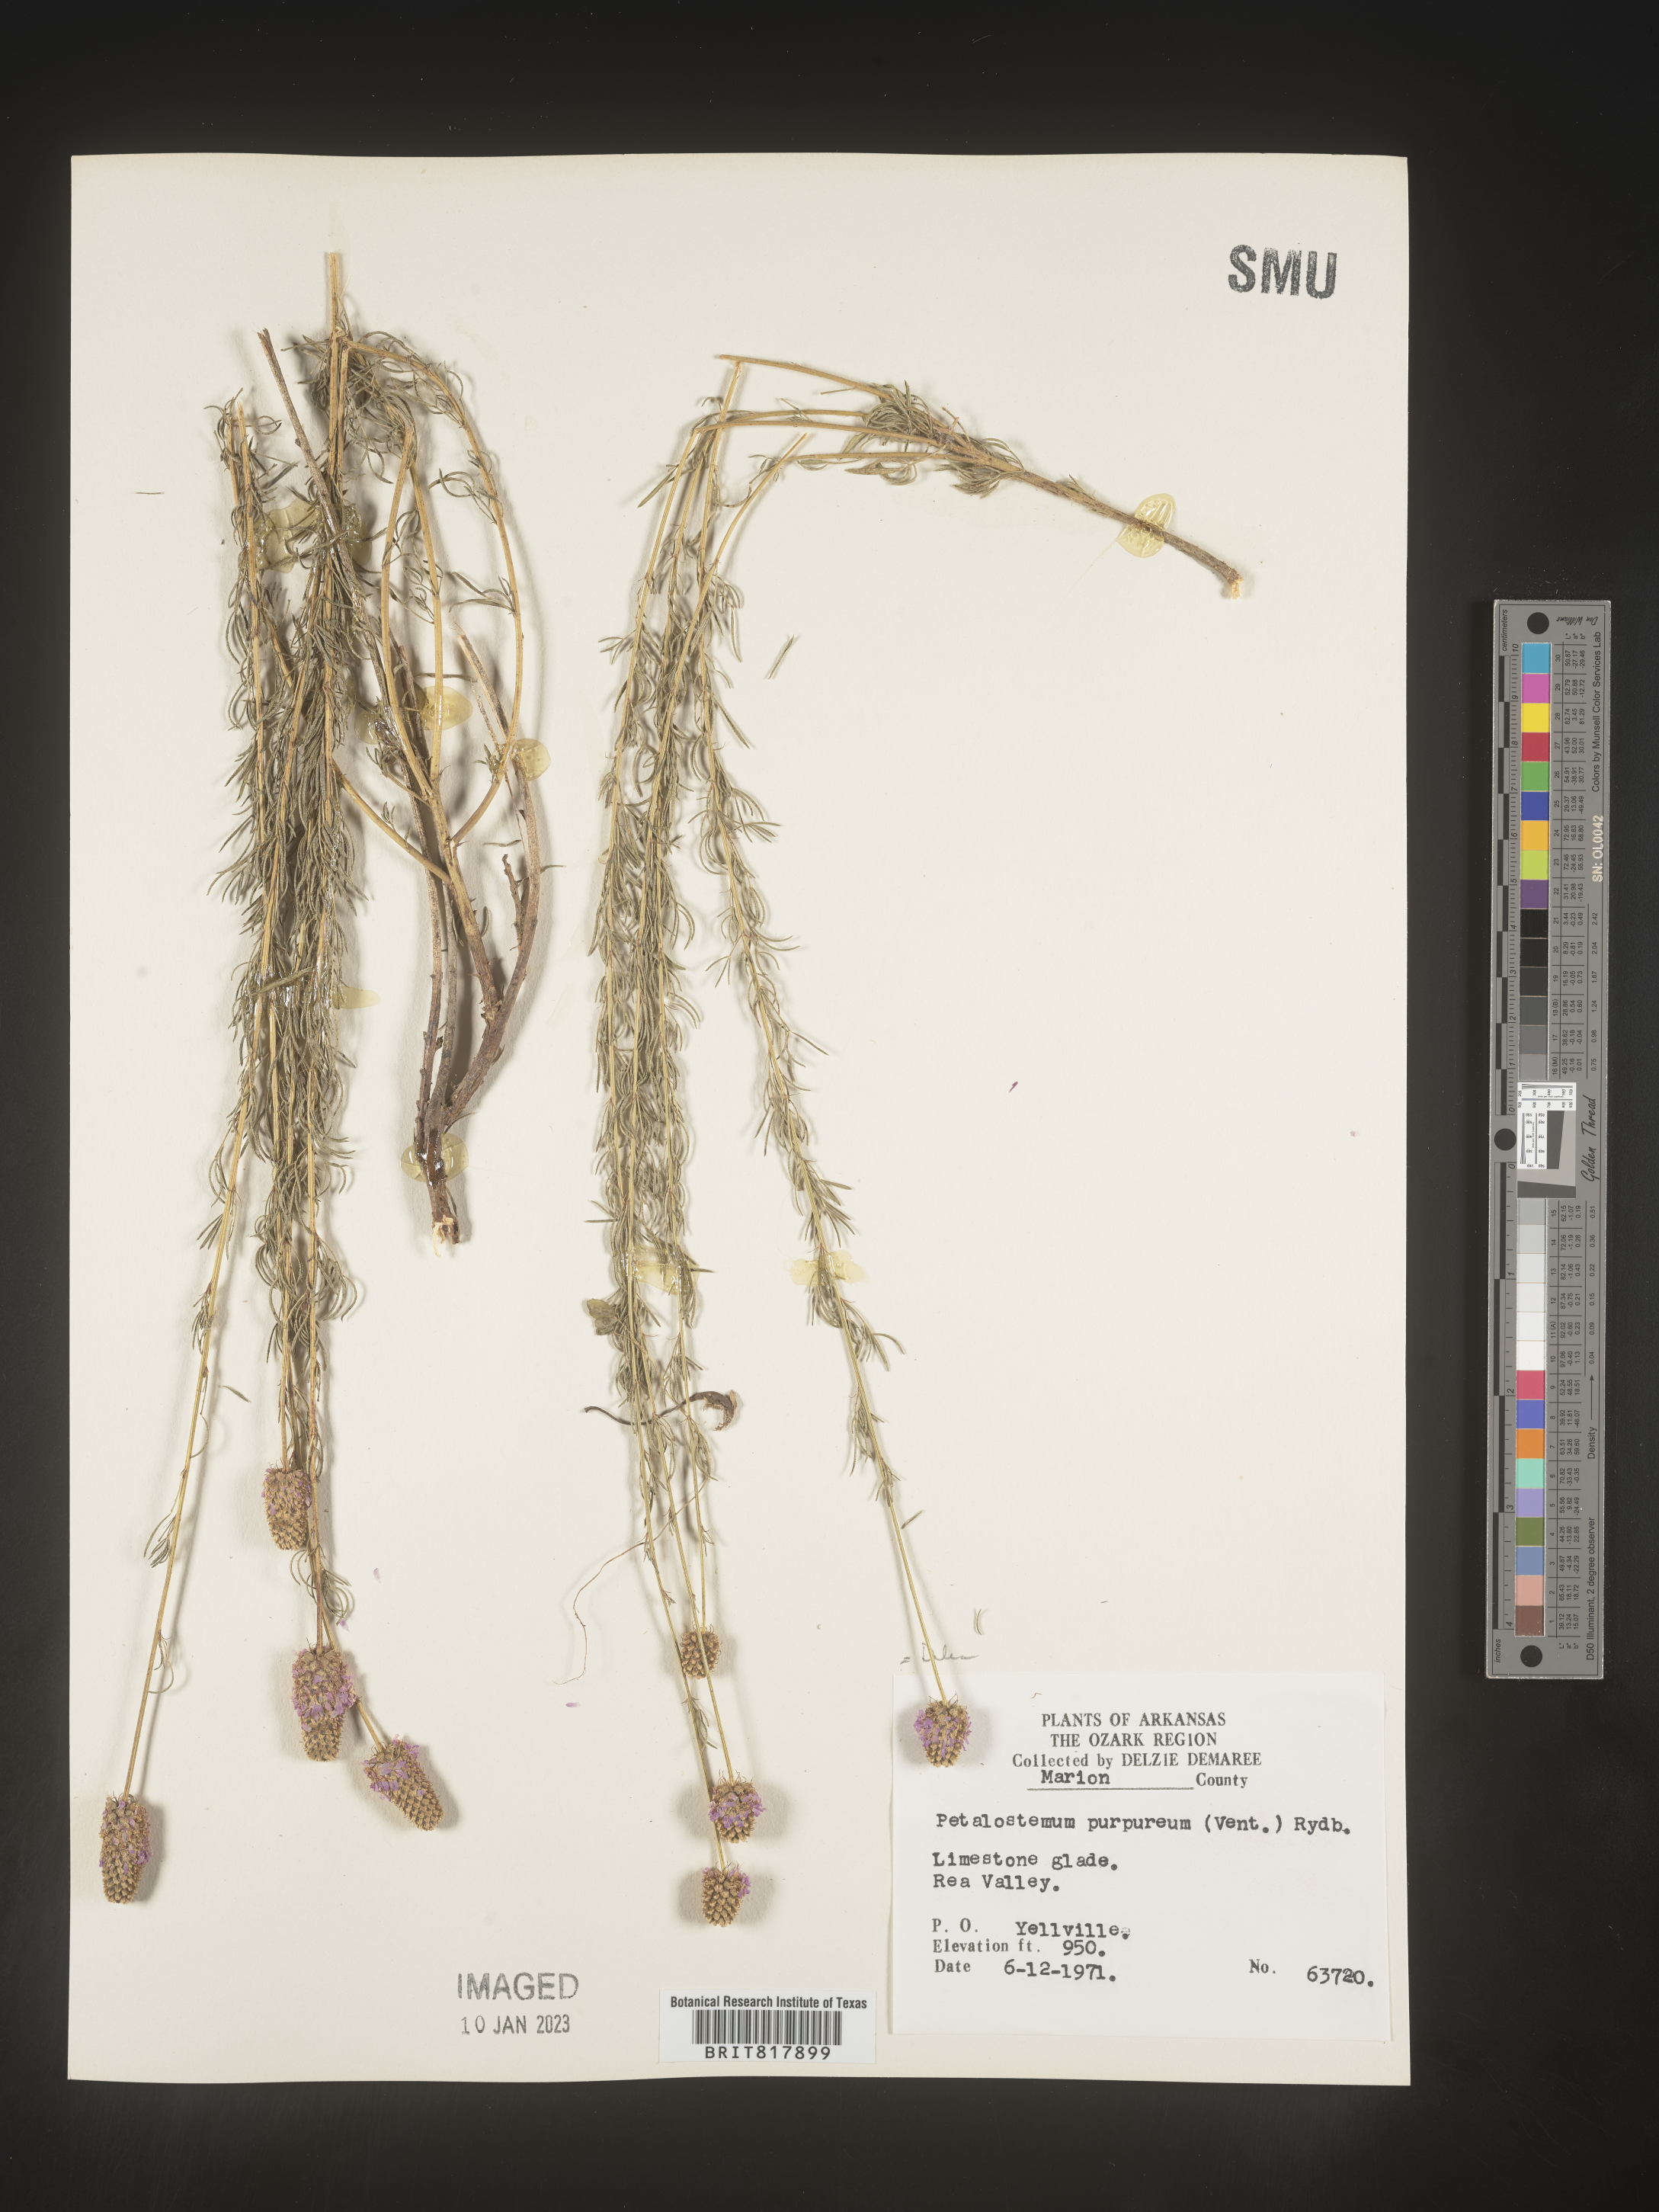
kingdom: Plantae
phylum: Tracheophyta
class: Magnoliopsida
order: Fabales
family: Fabaceae
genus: Dalea
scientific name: Dalea purpurea
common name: Purple prairie-clover
